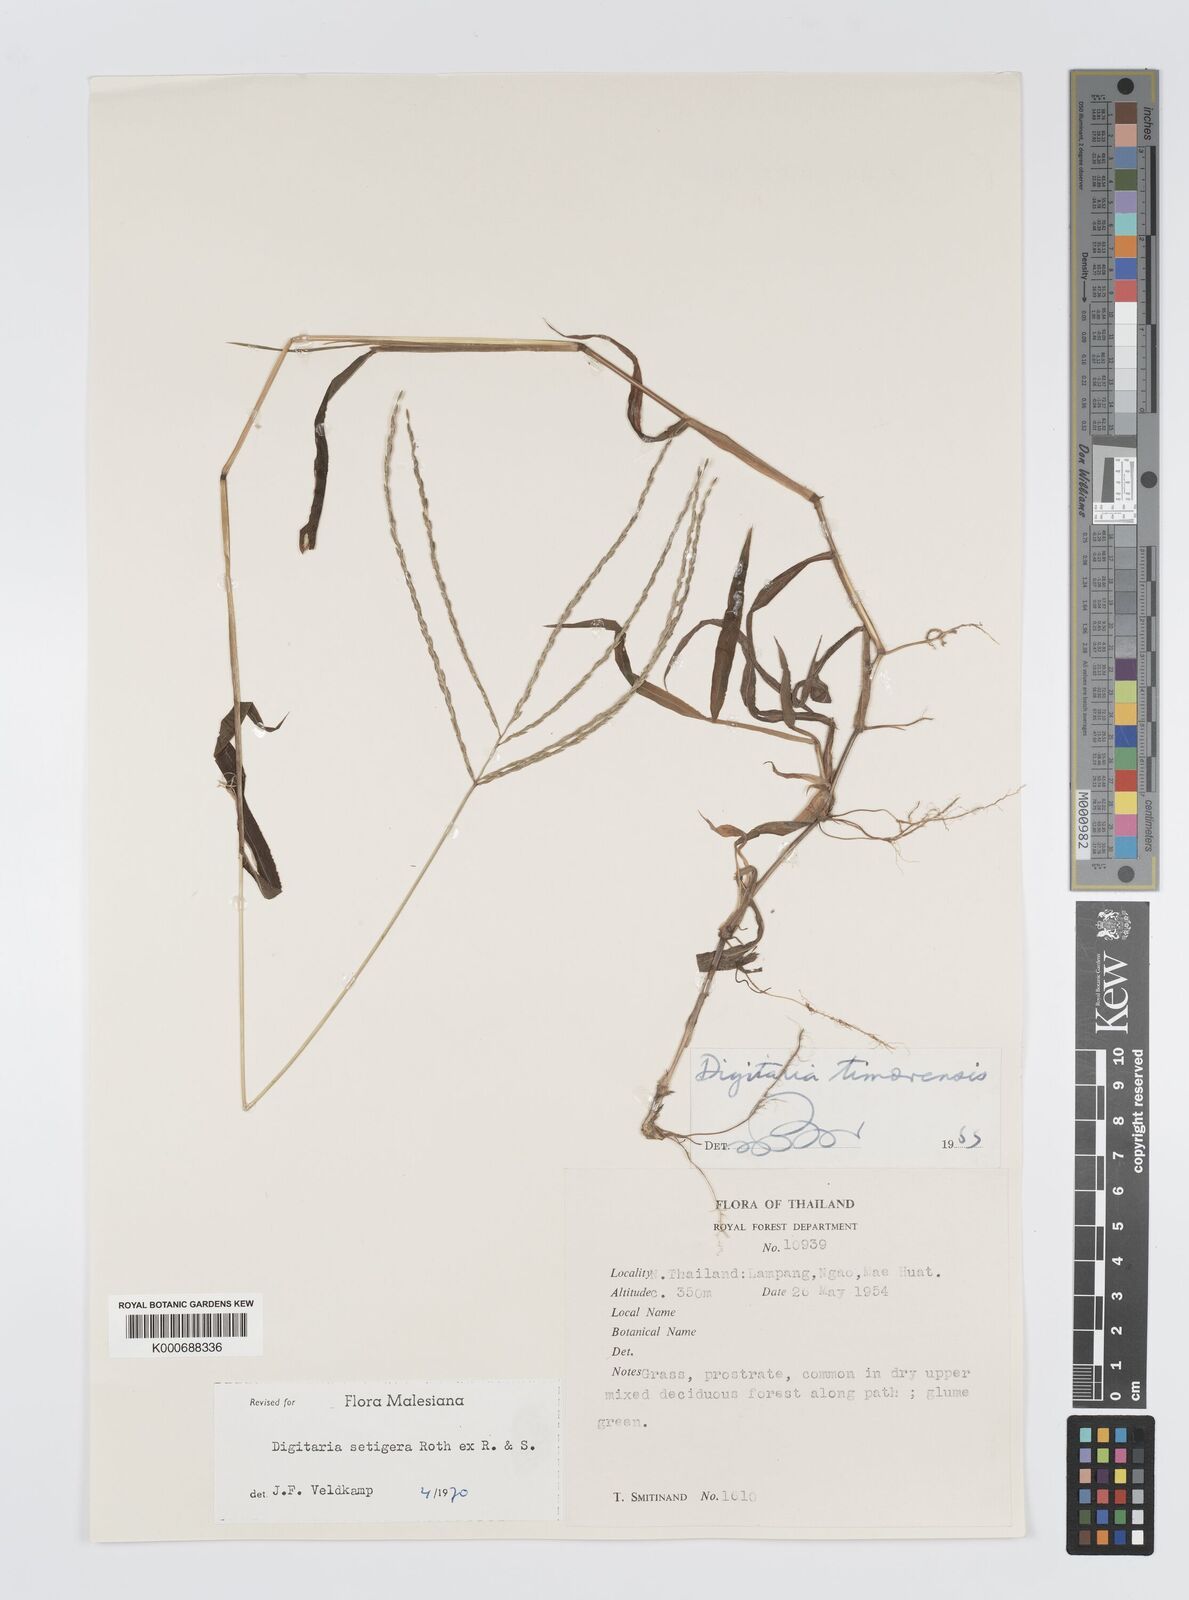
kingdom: Plantae
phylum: Tracheophyta
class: Liliopsida
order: Poales
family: Poaceae
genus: Digitaria
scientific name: Digitaria
